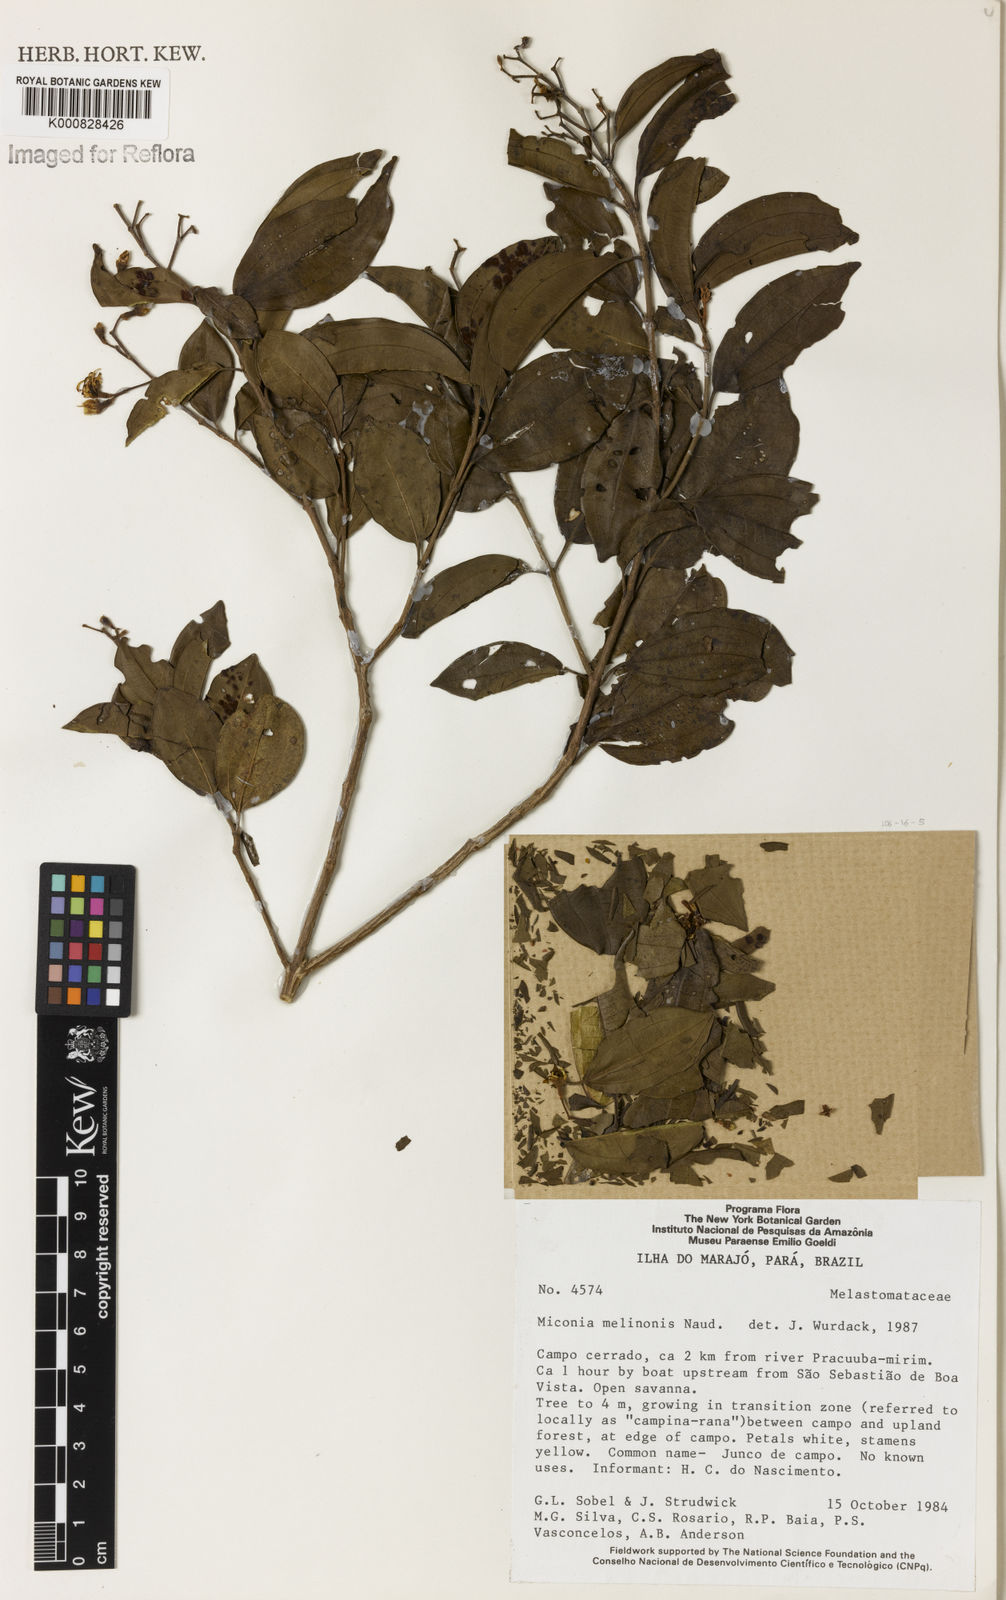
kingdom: Plantae
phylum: Tracheophyta
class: Magnoliopsida
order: Myrtales
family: Melastomataceae
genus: Miconia
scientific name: Miconia melinonis
